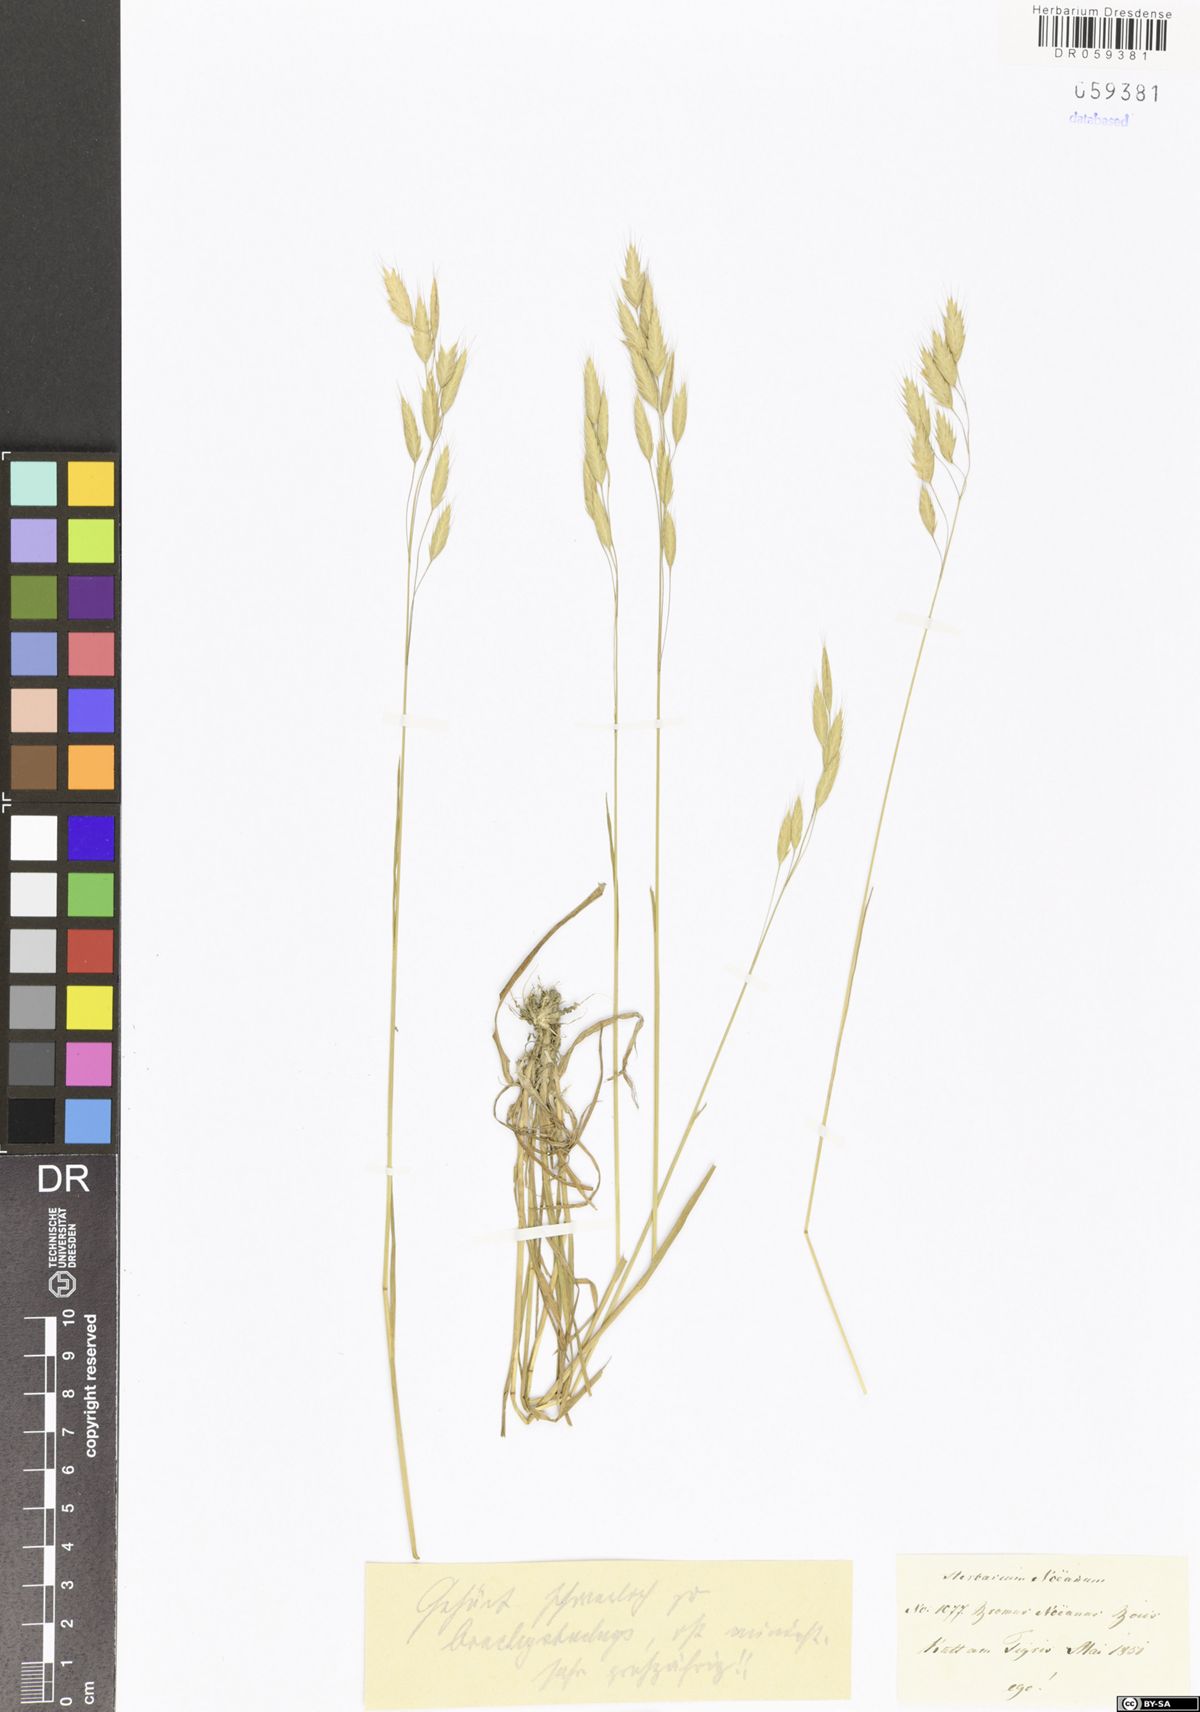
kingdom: Plantae
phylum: Tracheophyta
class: Liliopsida
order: Poales
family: Poaceae
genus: Bromus
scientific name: Bromus brachystachys
